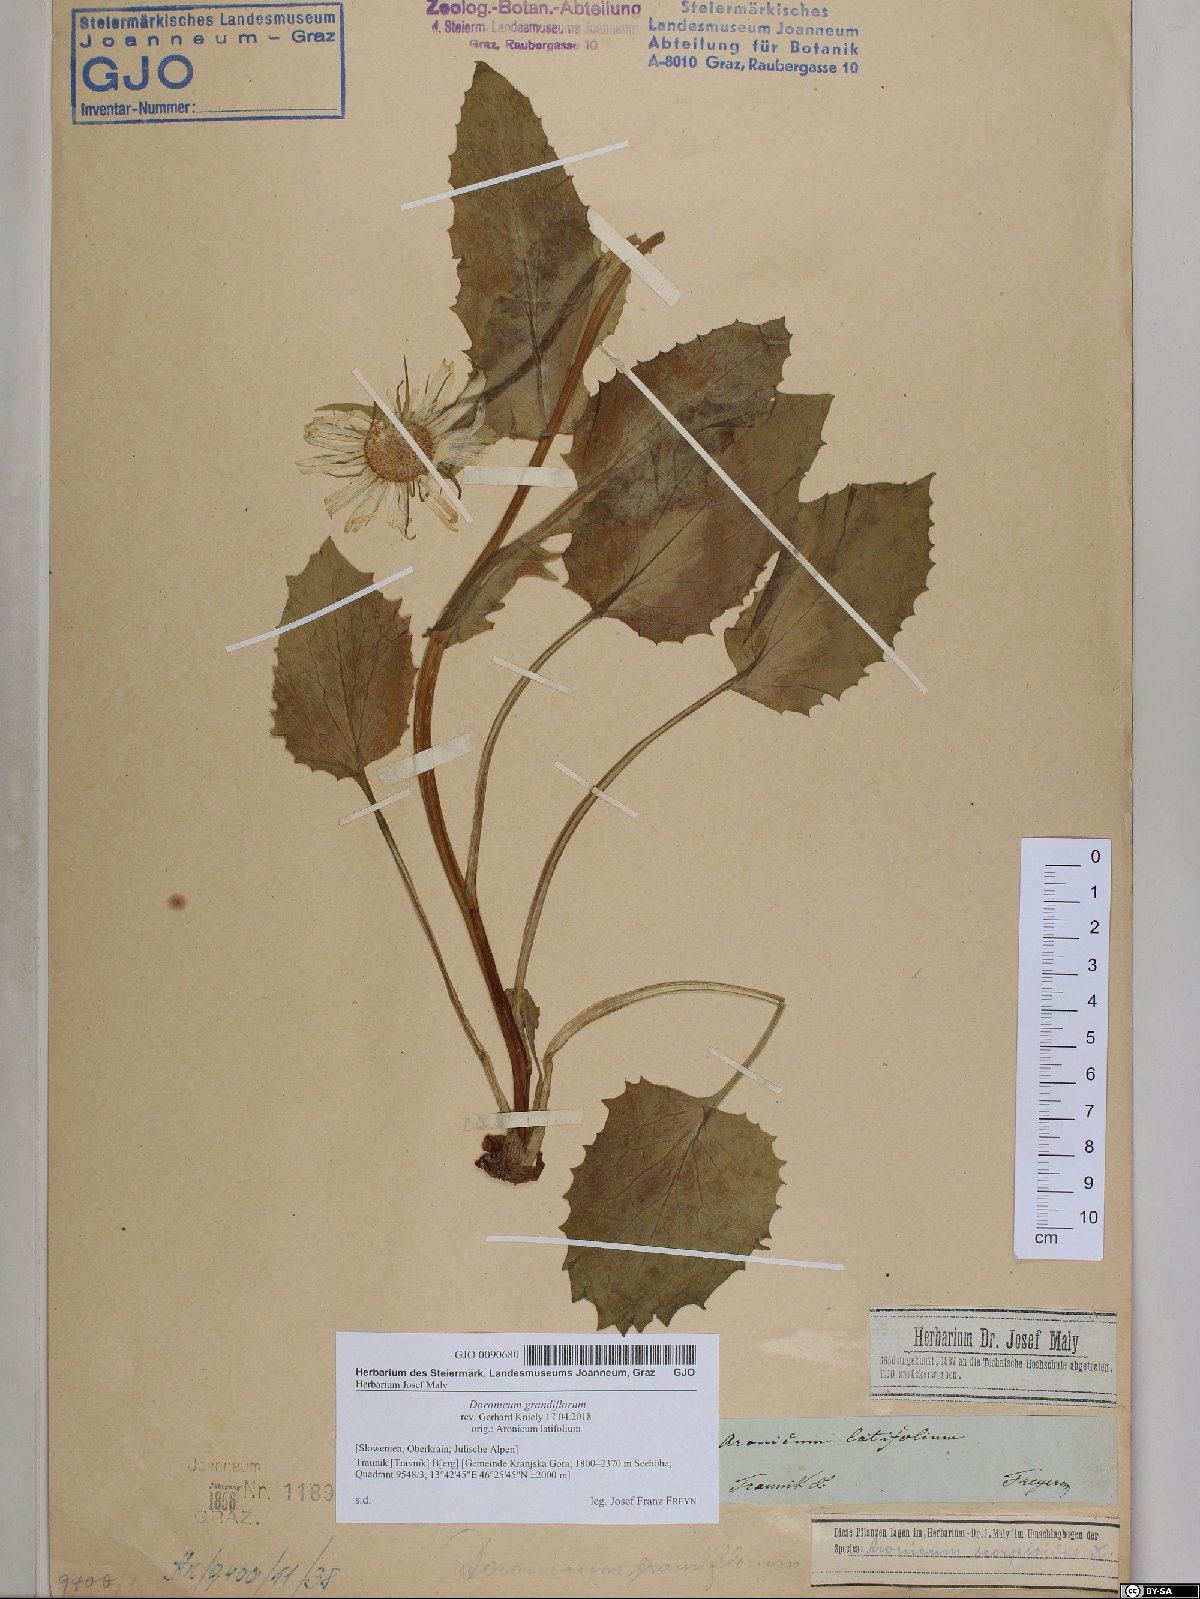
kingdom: Plantae
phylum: Tracheophyta
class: Magnoliopsida
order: Asterales
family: Asteraceae
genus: Doronicum
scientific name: Doronicum grandiflorum
